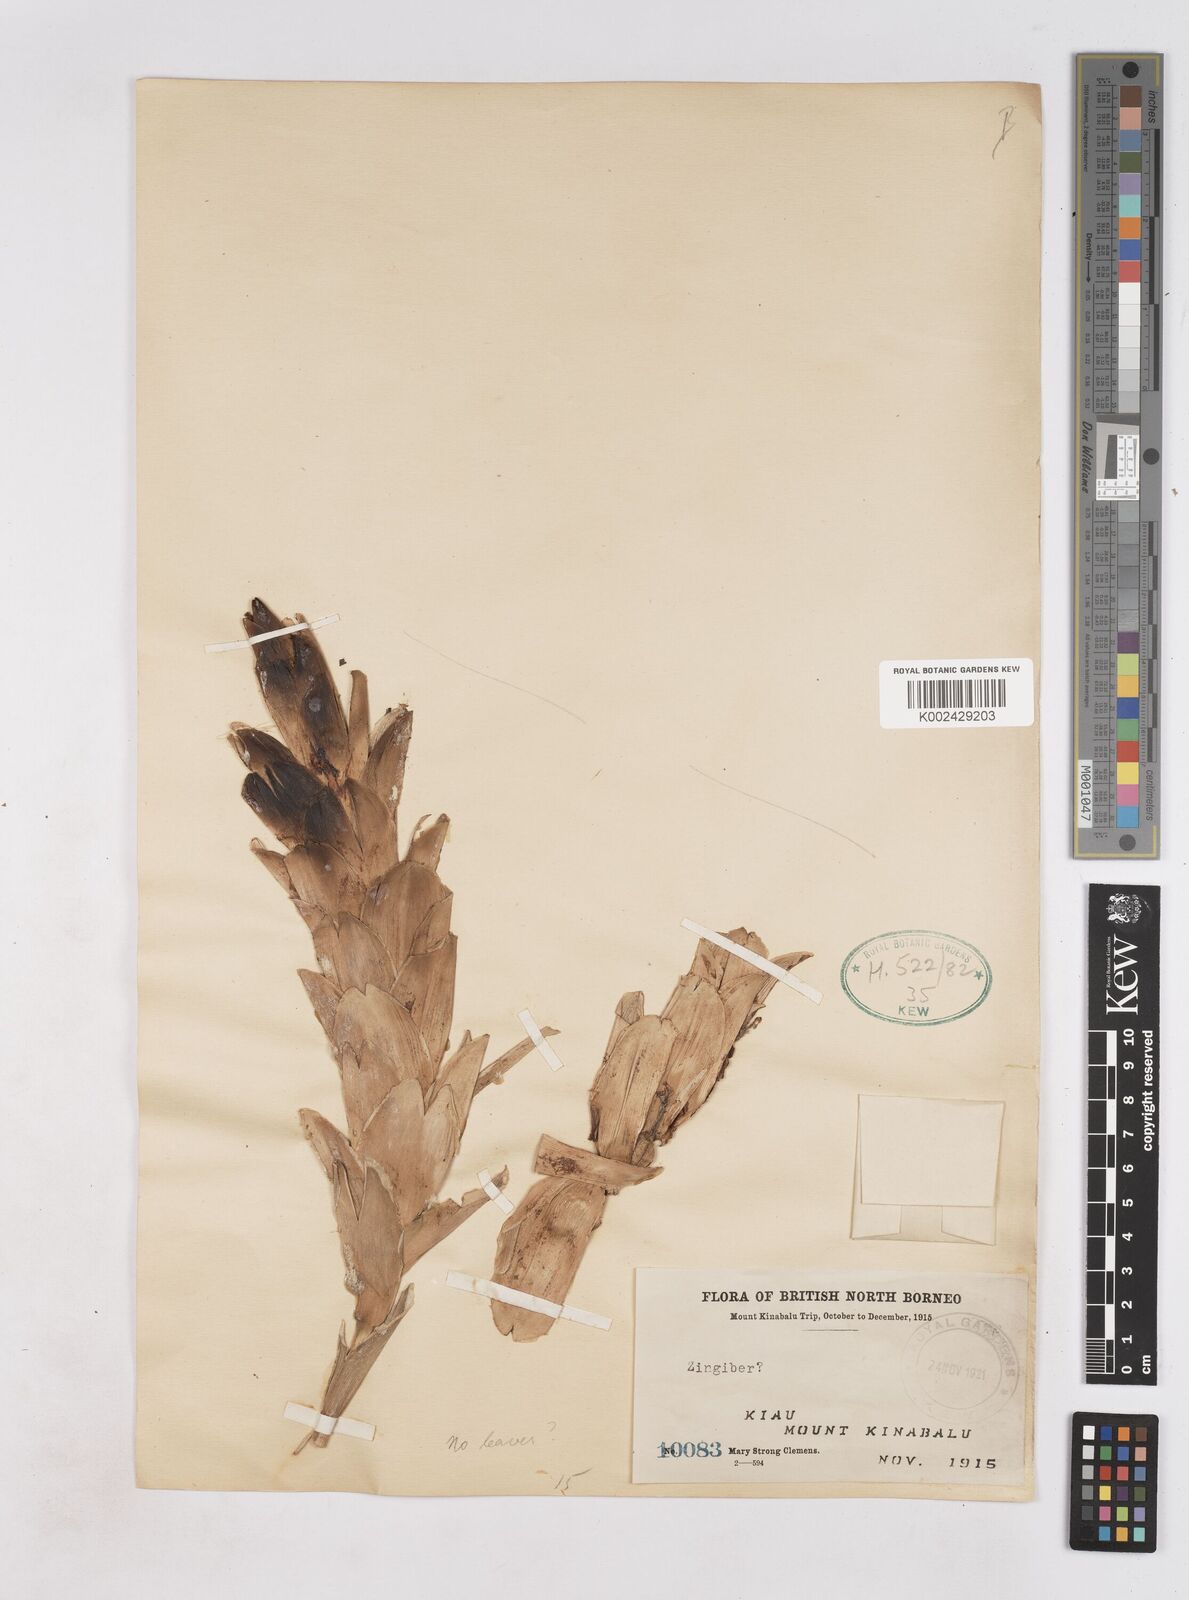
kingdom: Plantae
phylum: Tracheophyta
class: Liliopsida
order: Zingiberales
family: Zingiberaceae
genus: Zingiber
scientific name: Zingiber
